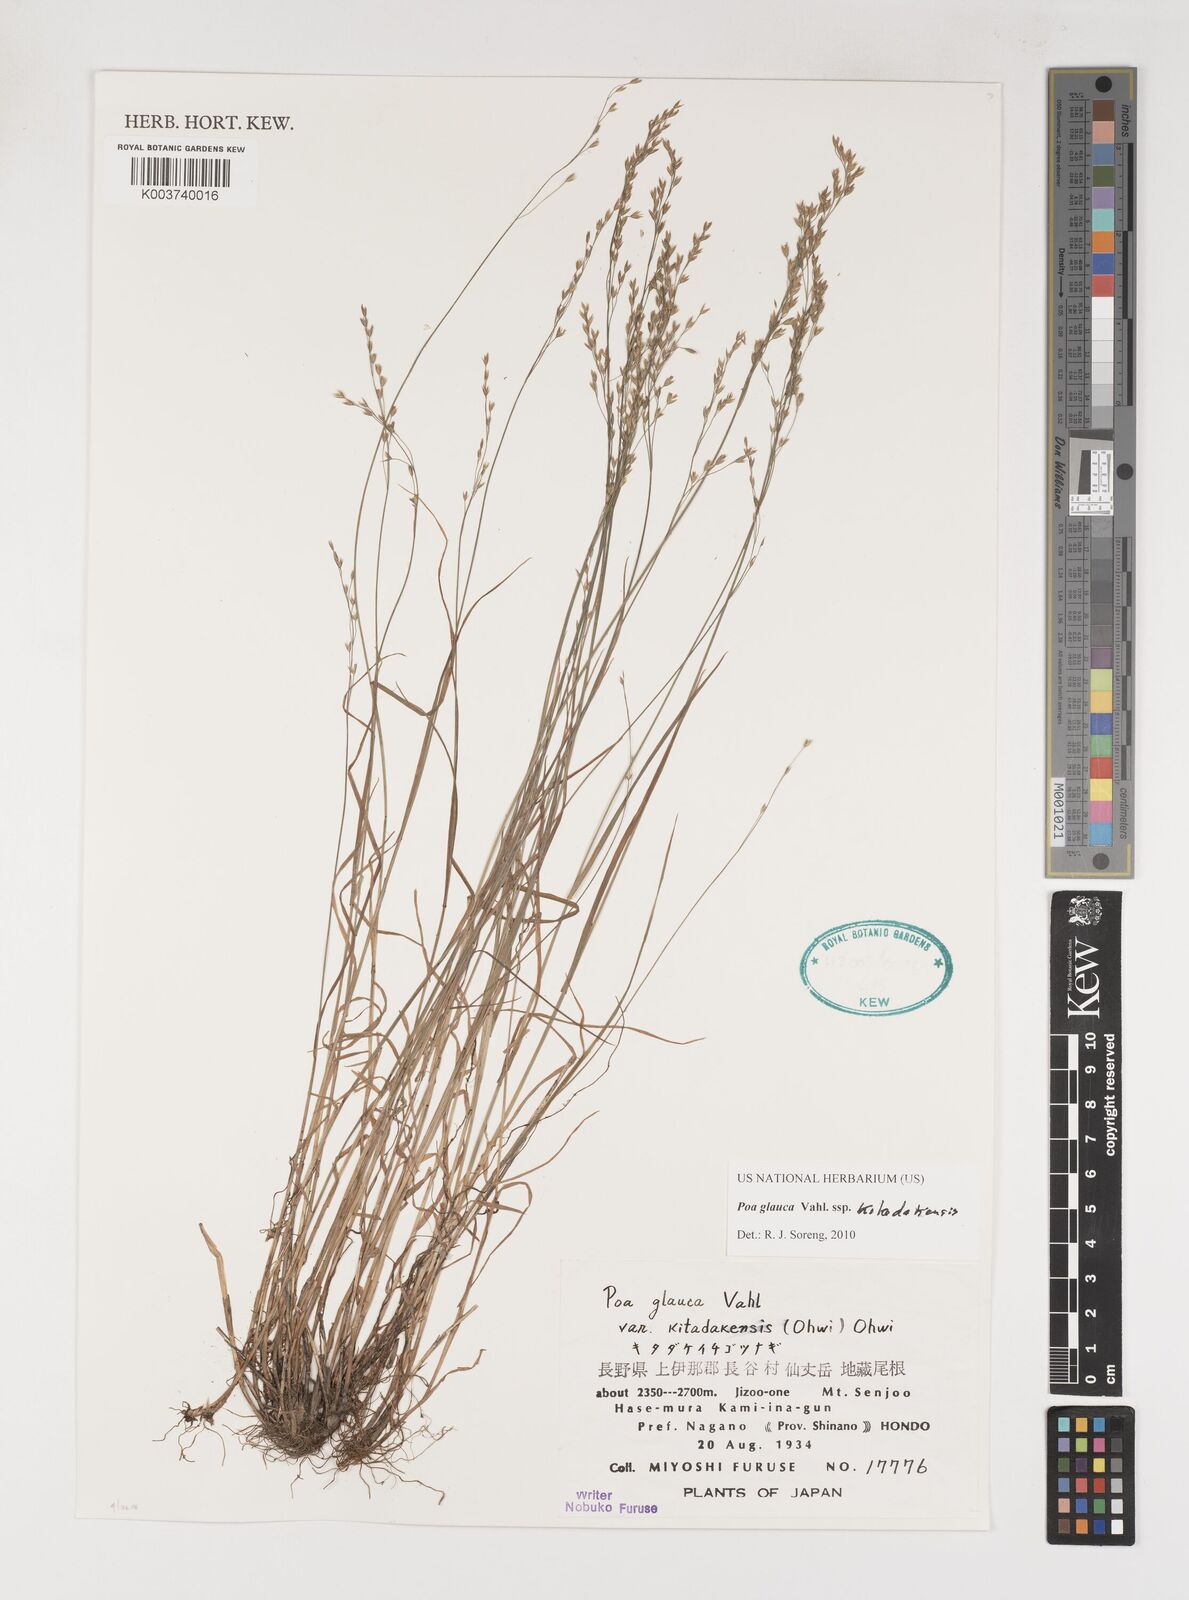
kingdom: Plantae
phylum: Tracheophyta
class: Liliopsida
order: Poales
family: Poaceae
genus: Poa
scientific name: Poa glauca
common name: Glaucous bluegrass
